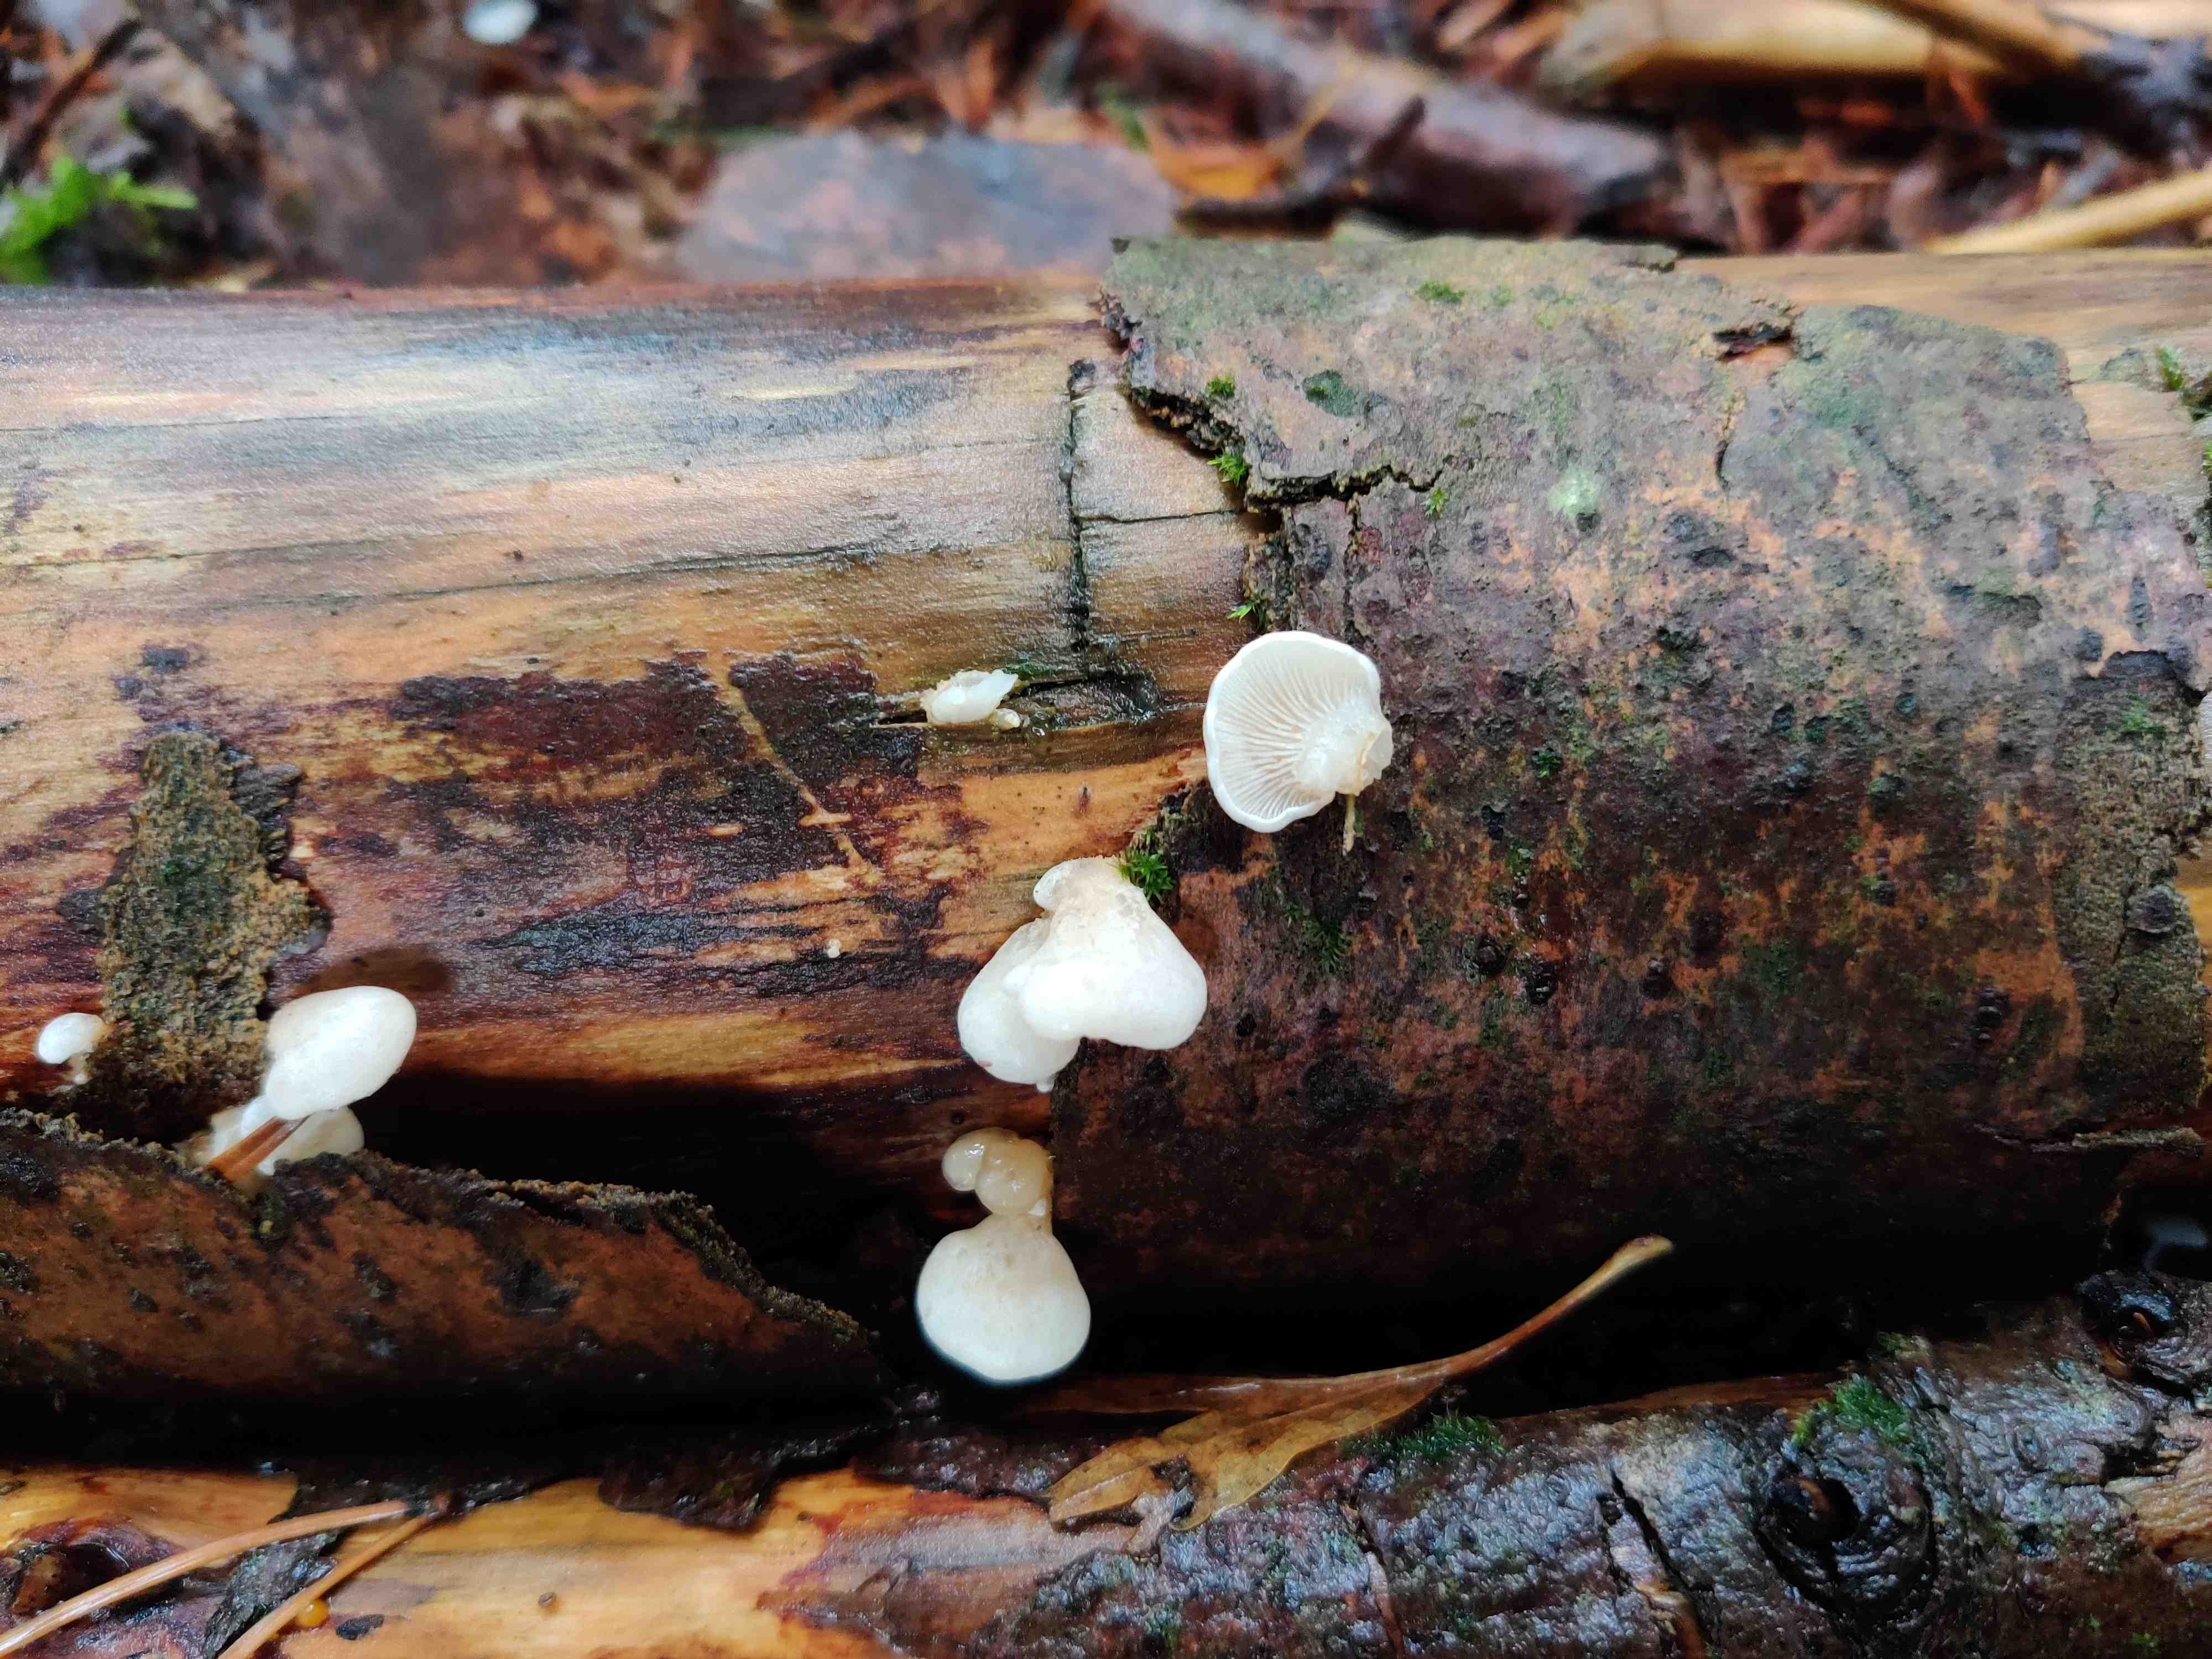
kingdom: Fungi
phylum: Basidiomycota
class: Agaricomycetes
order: Agaricales
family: Mycenaceae
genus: Panellus
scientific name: Panellus mitis
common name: mild epaulethat
